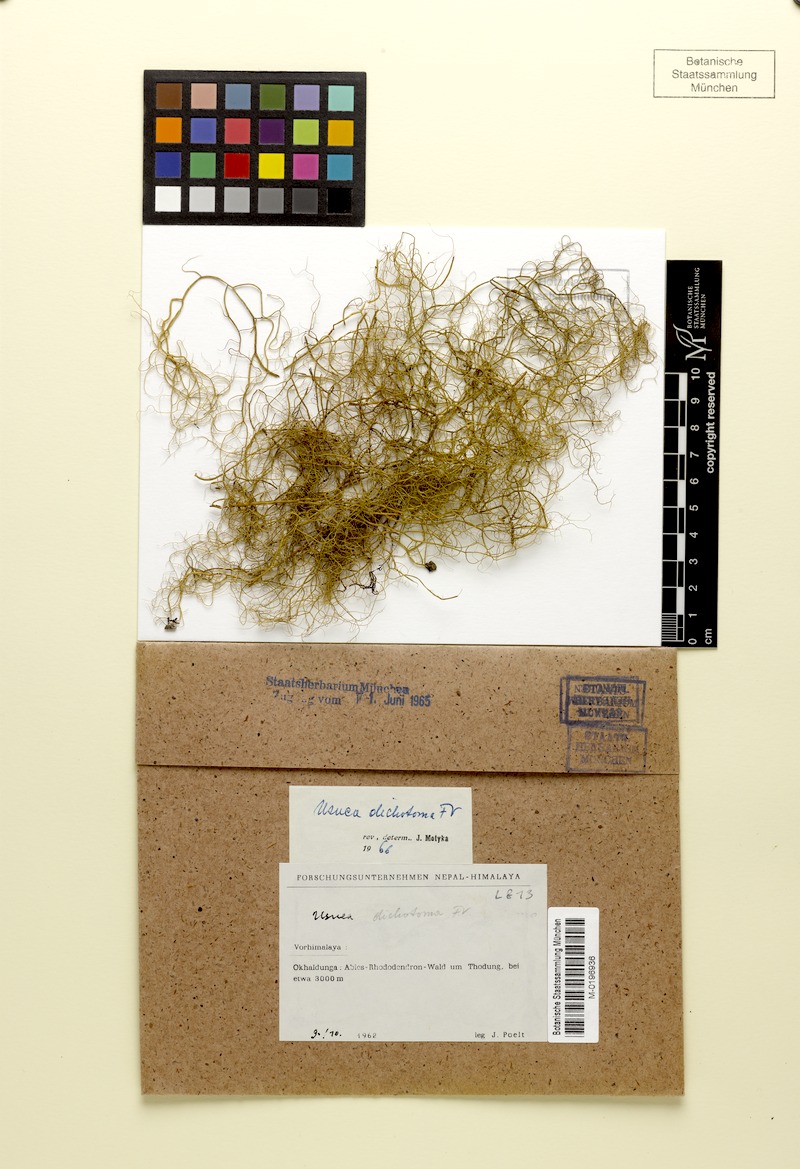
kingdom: Fungi
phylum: Ascomycota
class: Lecanoromycetes
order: Lecanorales
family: Parmeliaceae
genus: Usnea
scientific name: Usnea
